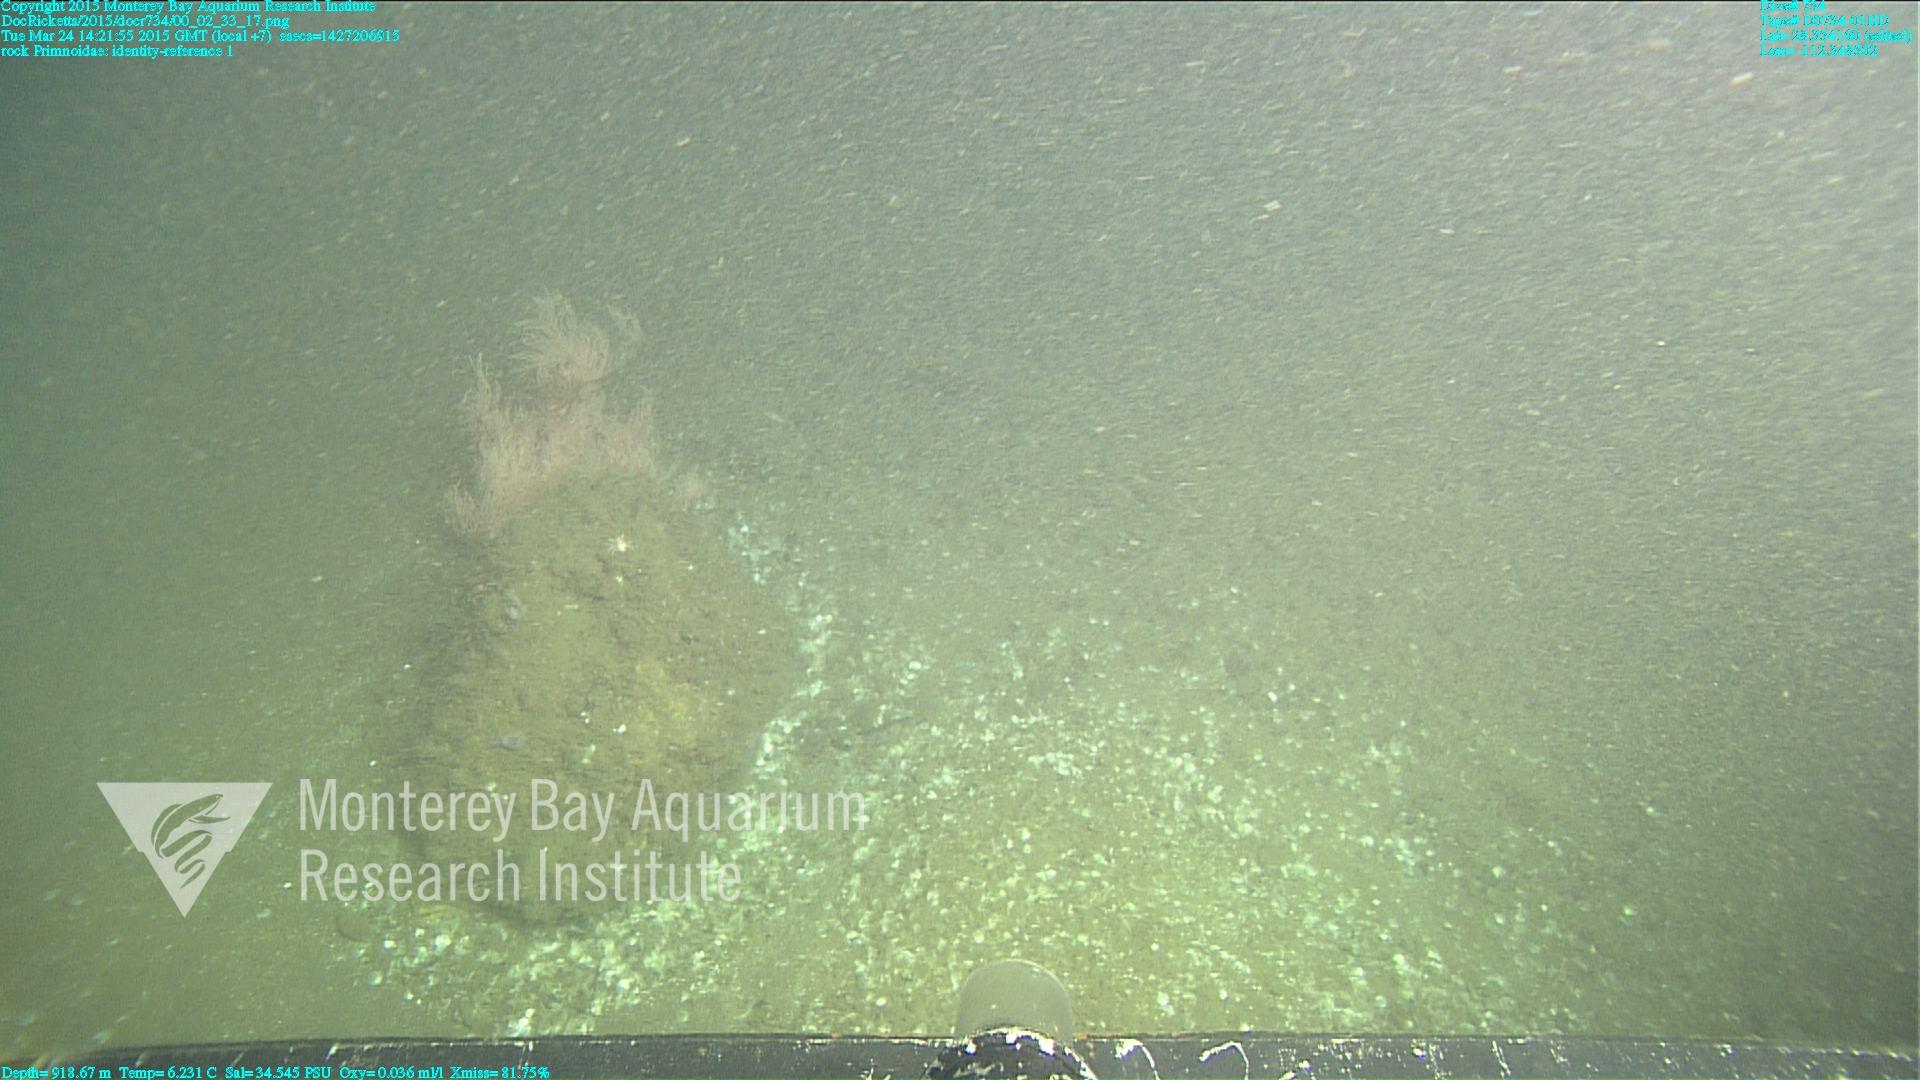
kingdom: Animalia
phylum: Cnidaria
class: Anthozoa
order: Scleralcyonacea
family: Primnoidae
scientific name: Primnoidae
